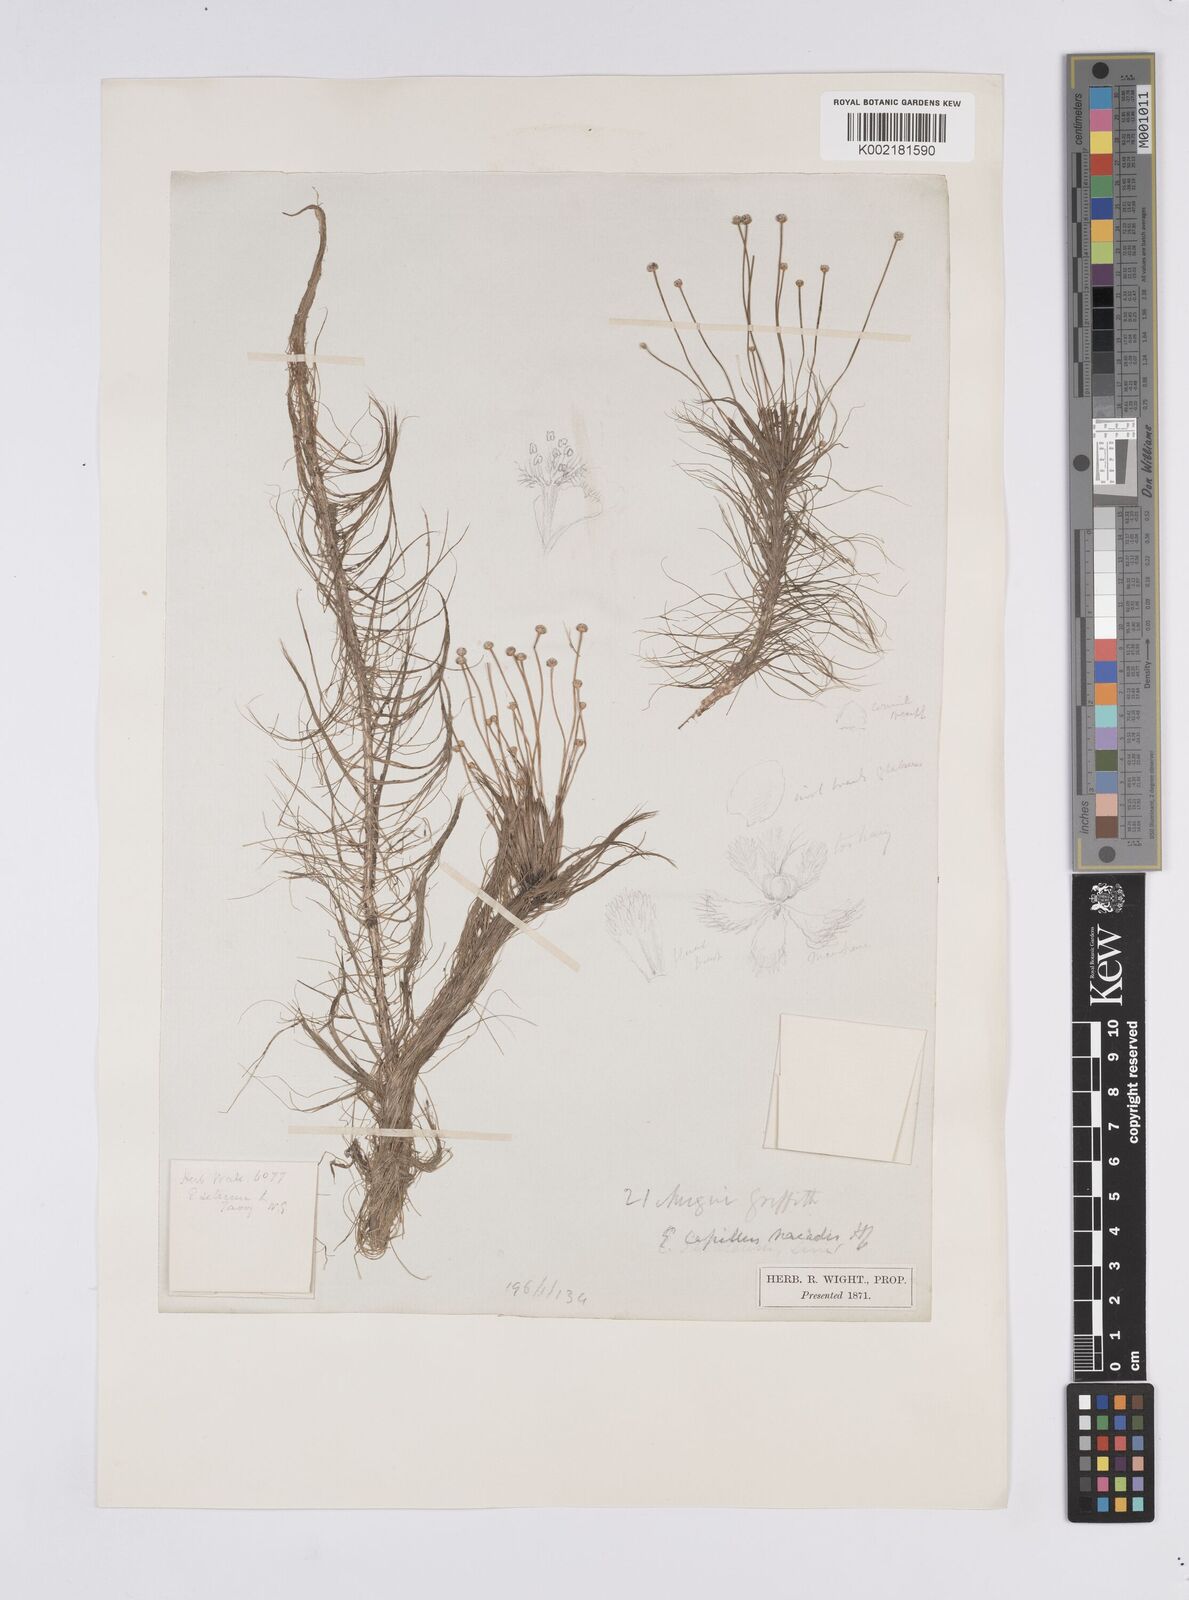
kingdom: Plantae
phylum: Tracheophyta
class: Liliopsida
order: Poales
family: Eriocaulaceae
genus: Eriocaulon
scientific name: Eriocaulon setaceum
